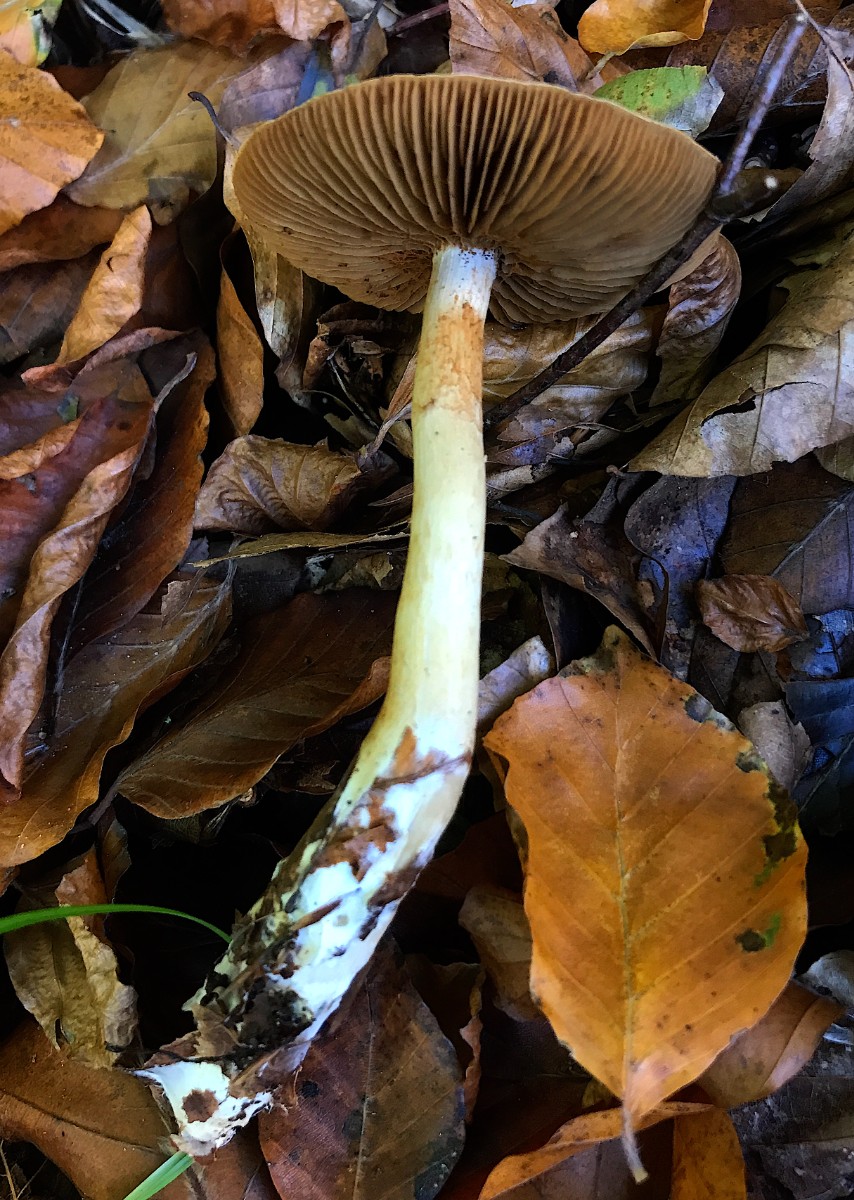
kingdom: Fungi
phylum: Basidiomycota
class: Agaricomycetes
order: Agaricales
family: Cortinariaceae
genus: Cortinarius
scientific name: Cortinarius delibutus
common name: gul slørhat
